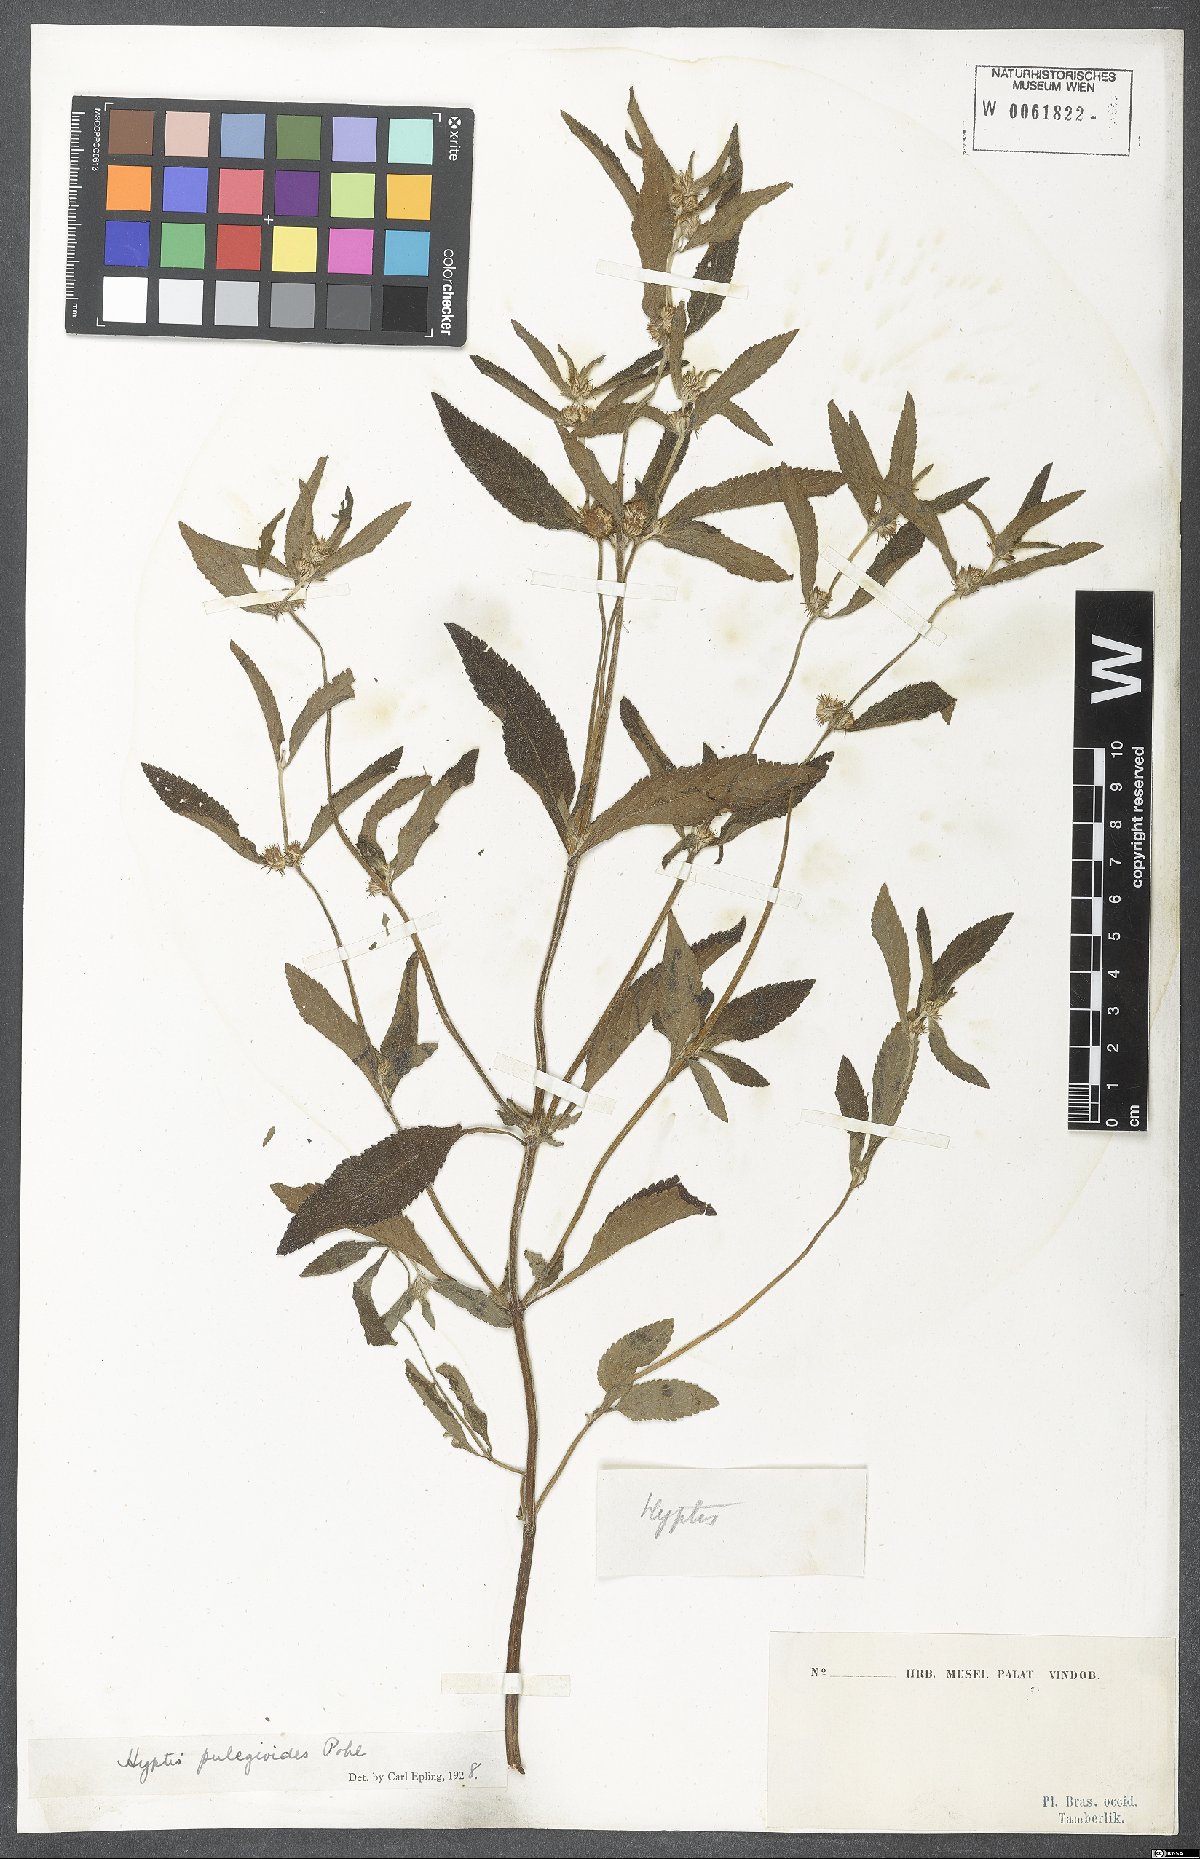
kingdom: Plantae
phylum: Tracheophyta
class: Magnoliopsida
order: Lamiales
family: Lamiaceae
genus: Hyptis
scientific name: Hyptis pulegioides
